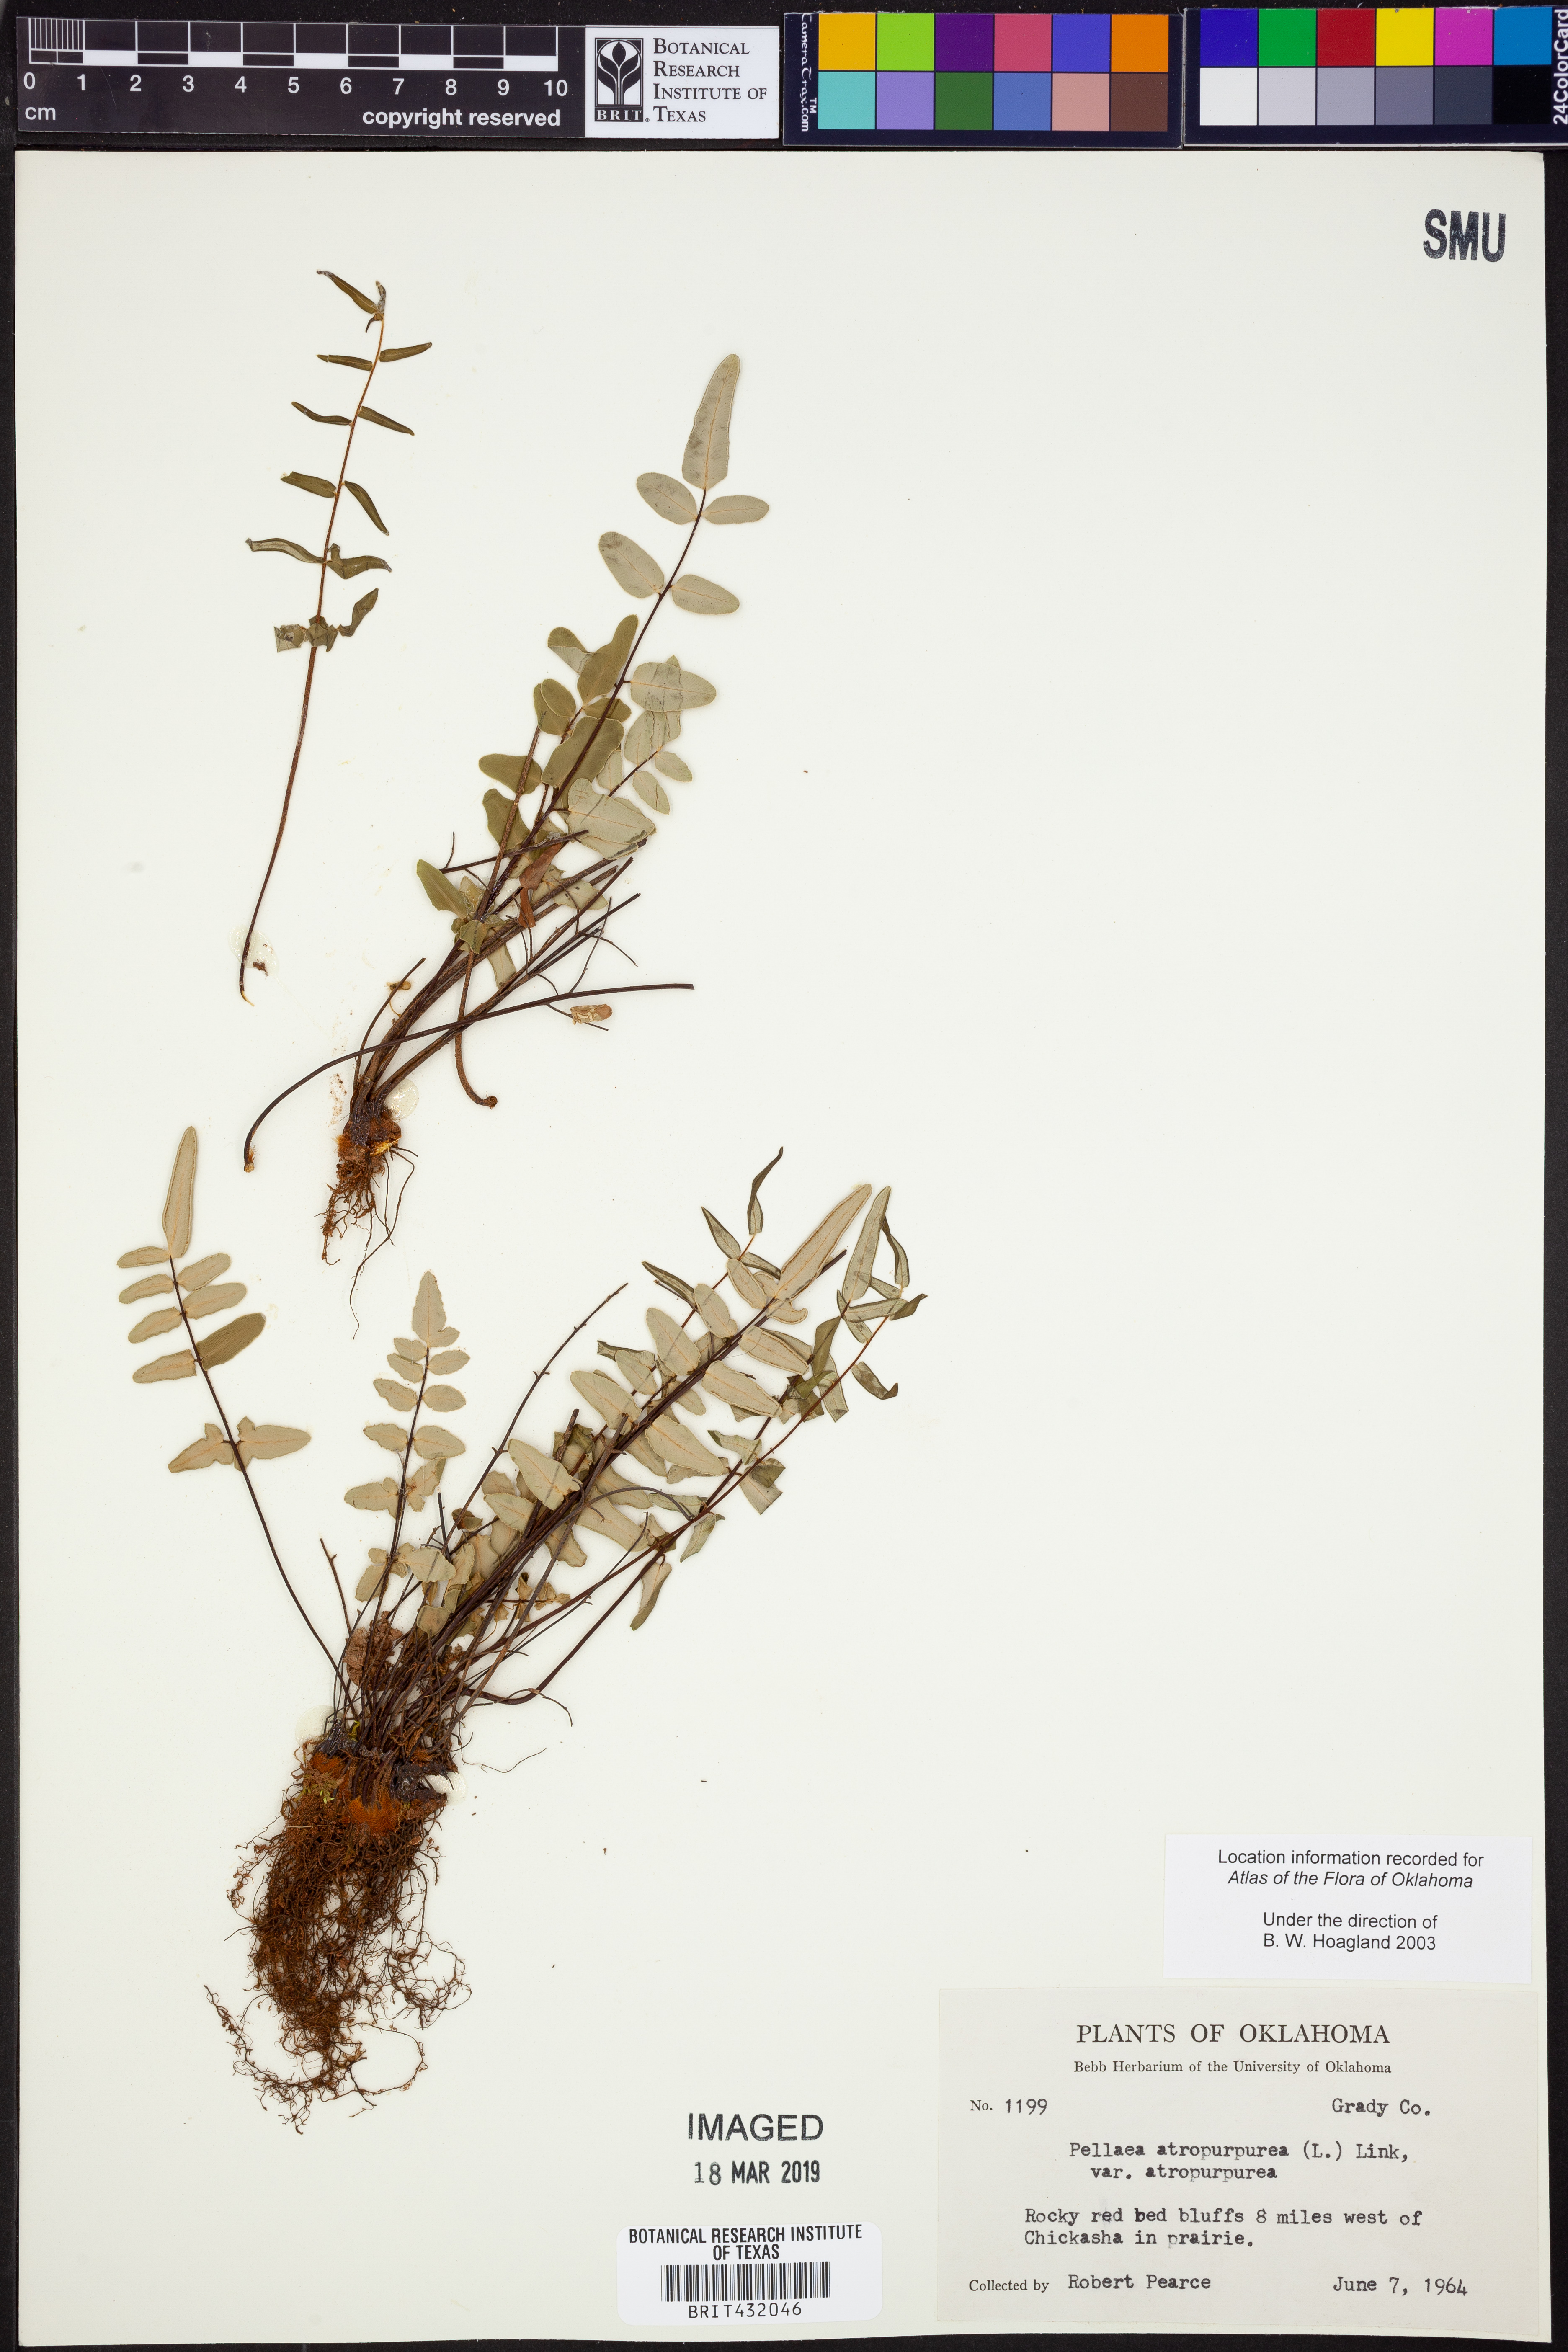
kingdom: Plantae
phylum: Tracheophyta
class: Polypodiopsida
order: Polypodiales
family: Pteridaceae
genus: Pellaea
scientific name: Pellaea atropurpurea
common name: Hairy cliffbrake
